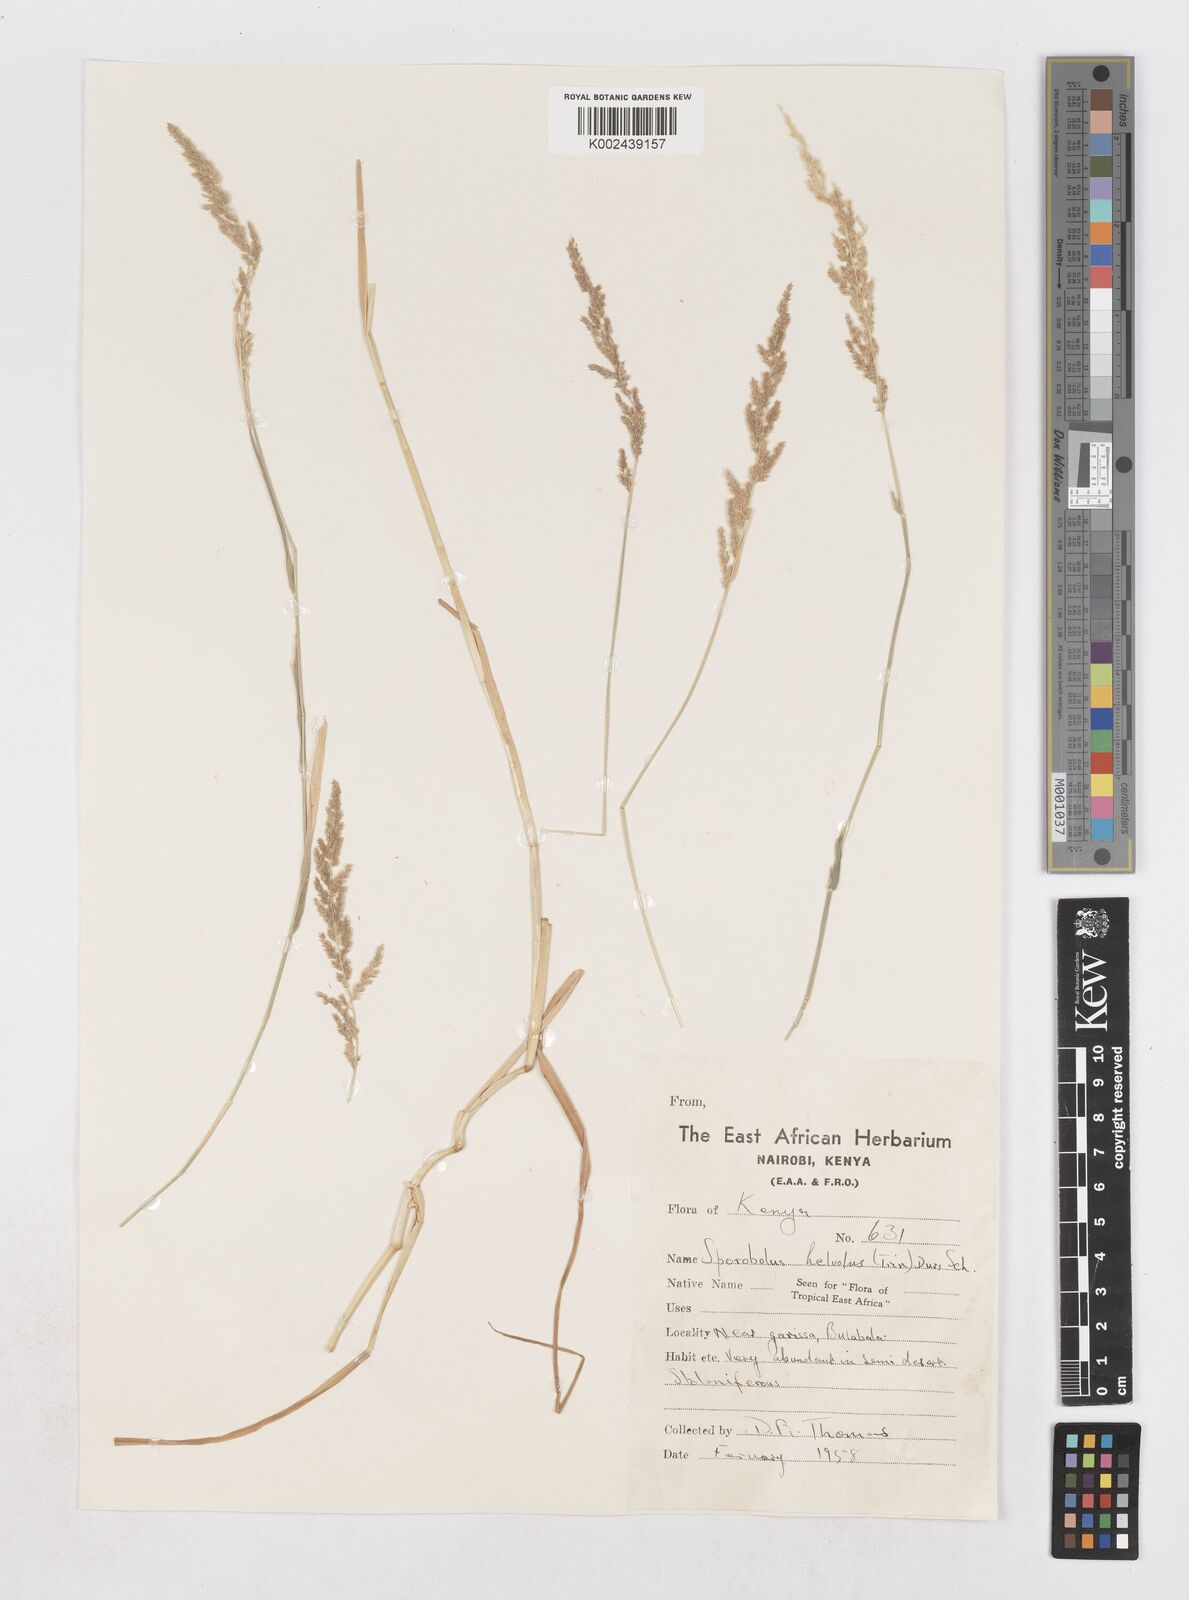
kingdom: Plantae
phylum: Tracheophyta
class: Liliopsida
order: Poales
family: Poaceae
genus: Sporobolus
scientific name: Sporobolus helvolus
